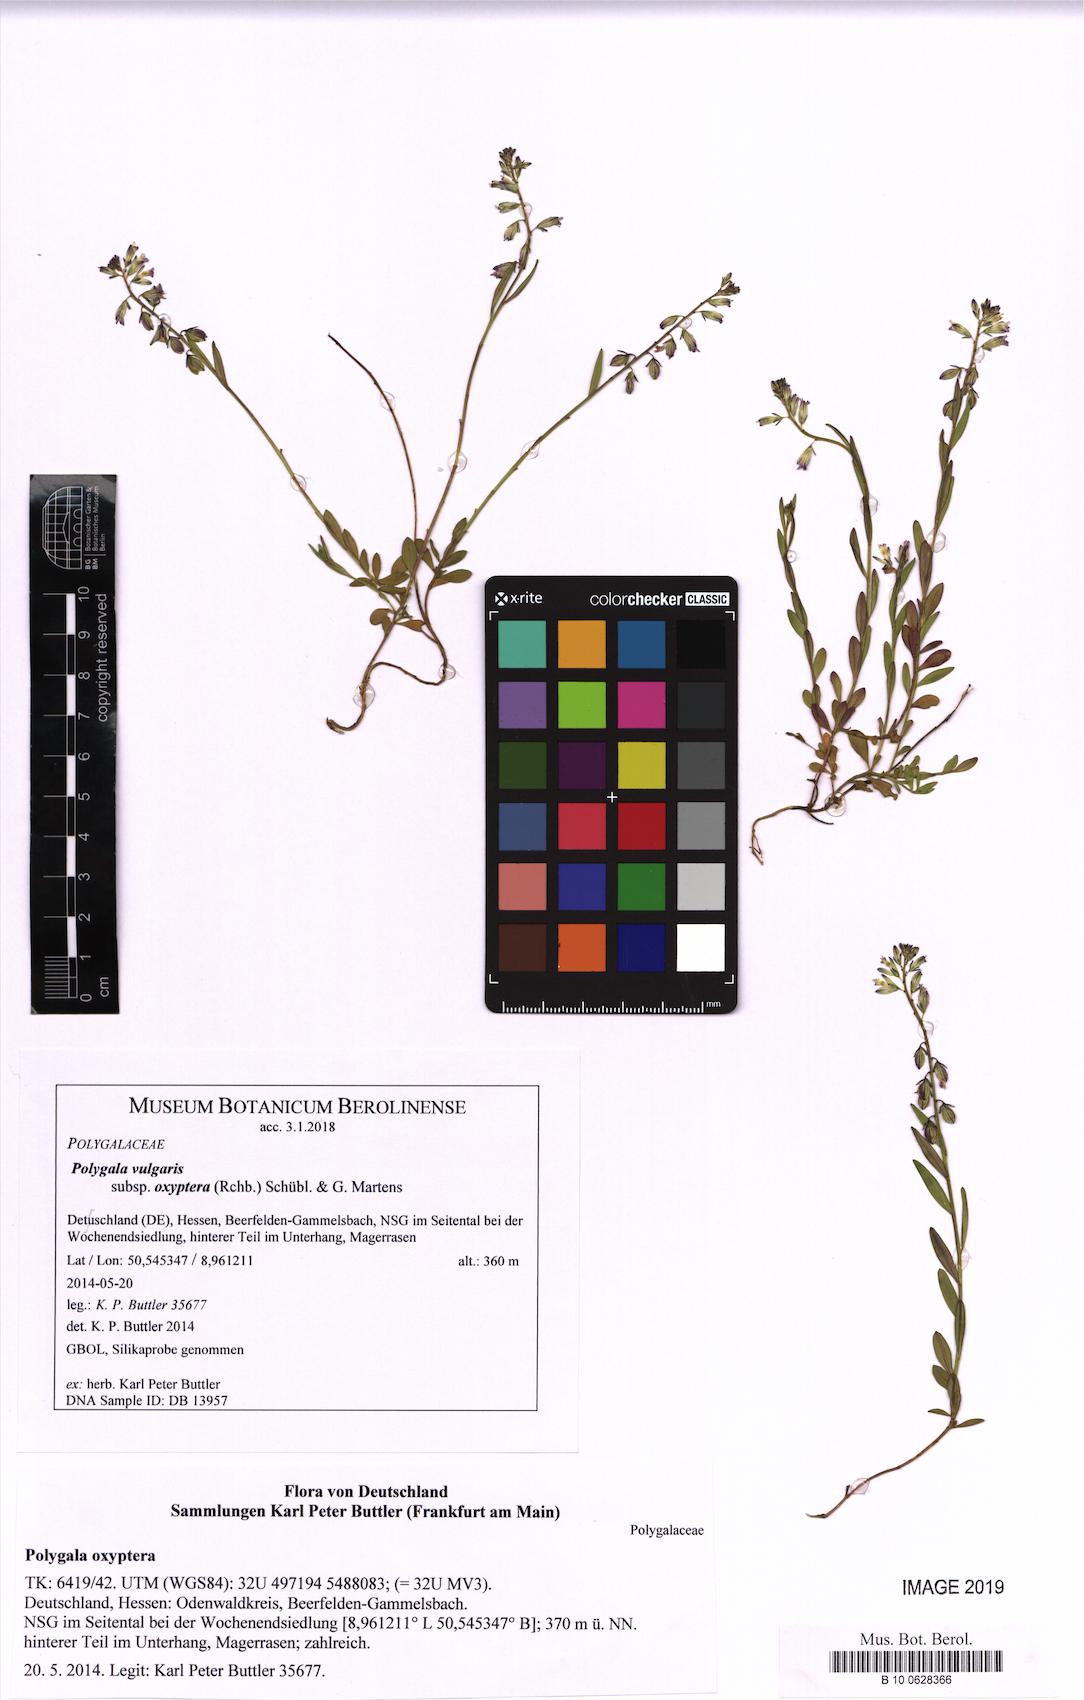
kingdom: Plantae
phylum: Tracheophyta
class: Magnoliopsida
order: Fabales
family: Polygalaceae
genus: Polygala
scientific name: Polygala vulgaris
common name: Common milkwort
